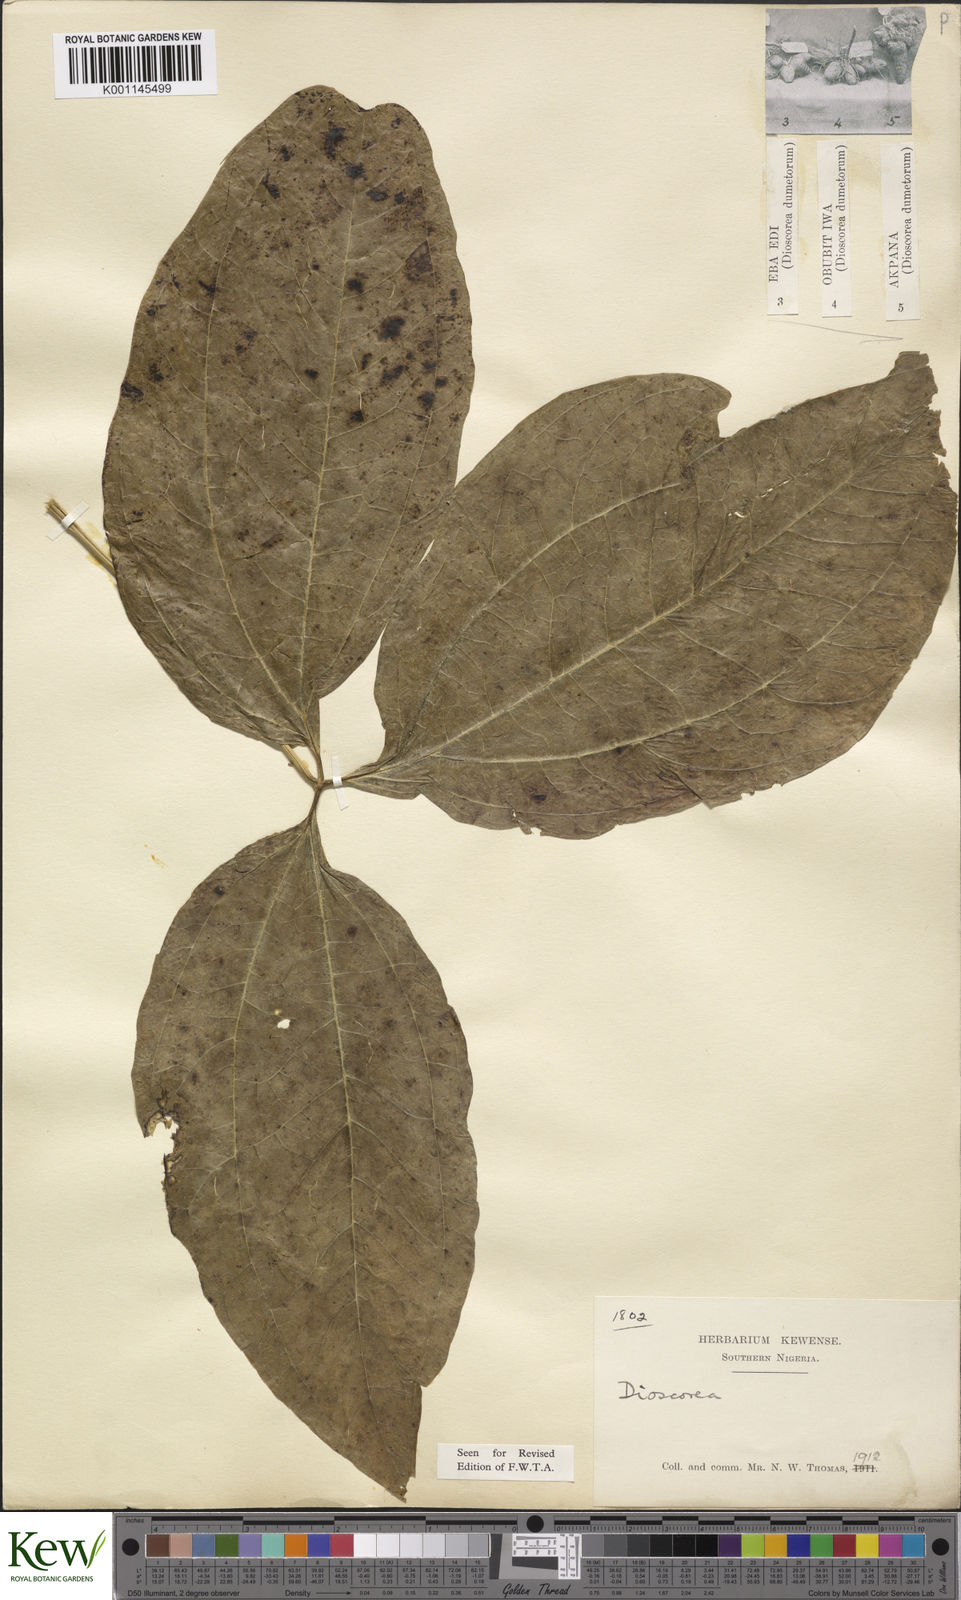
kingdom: Plantae
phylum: Tracheophyta
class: Liliopsida
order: Dioscoreales
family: Dioscoreaceae
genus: Dioscorea
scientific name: Dioscorea dumetorum
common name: African bitter yam
